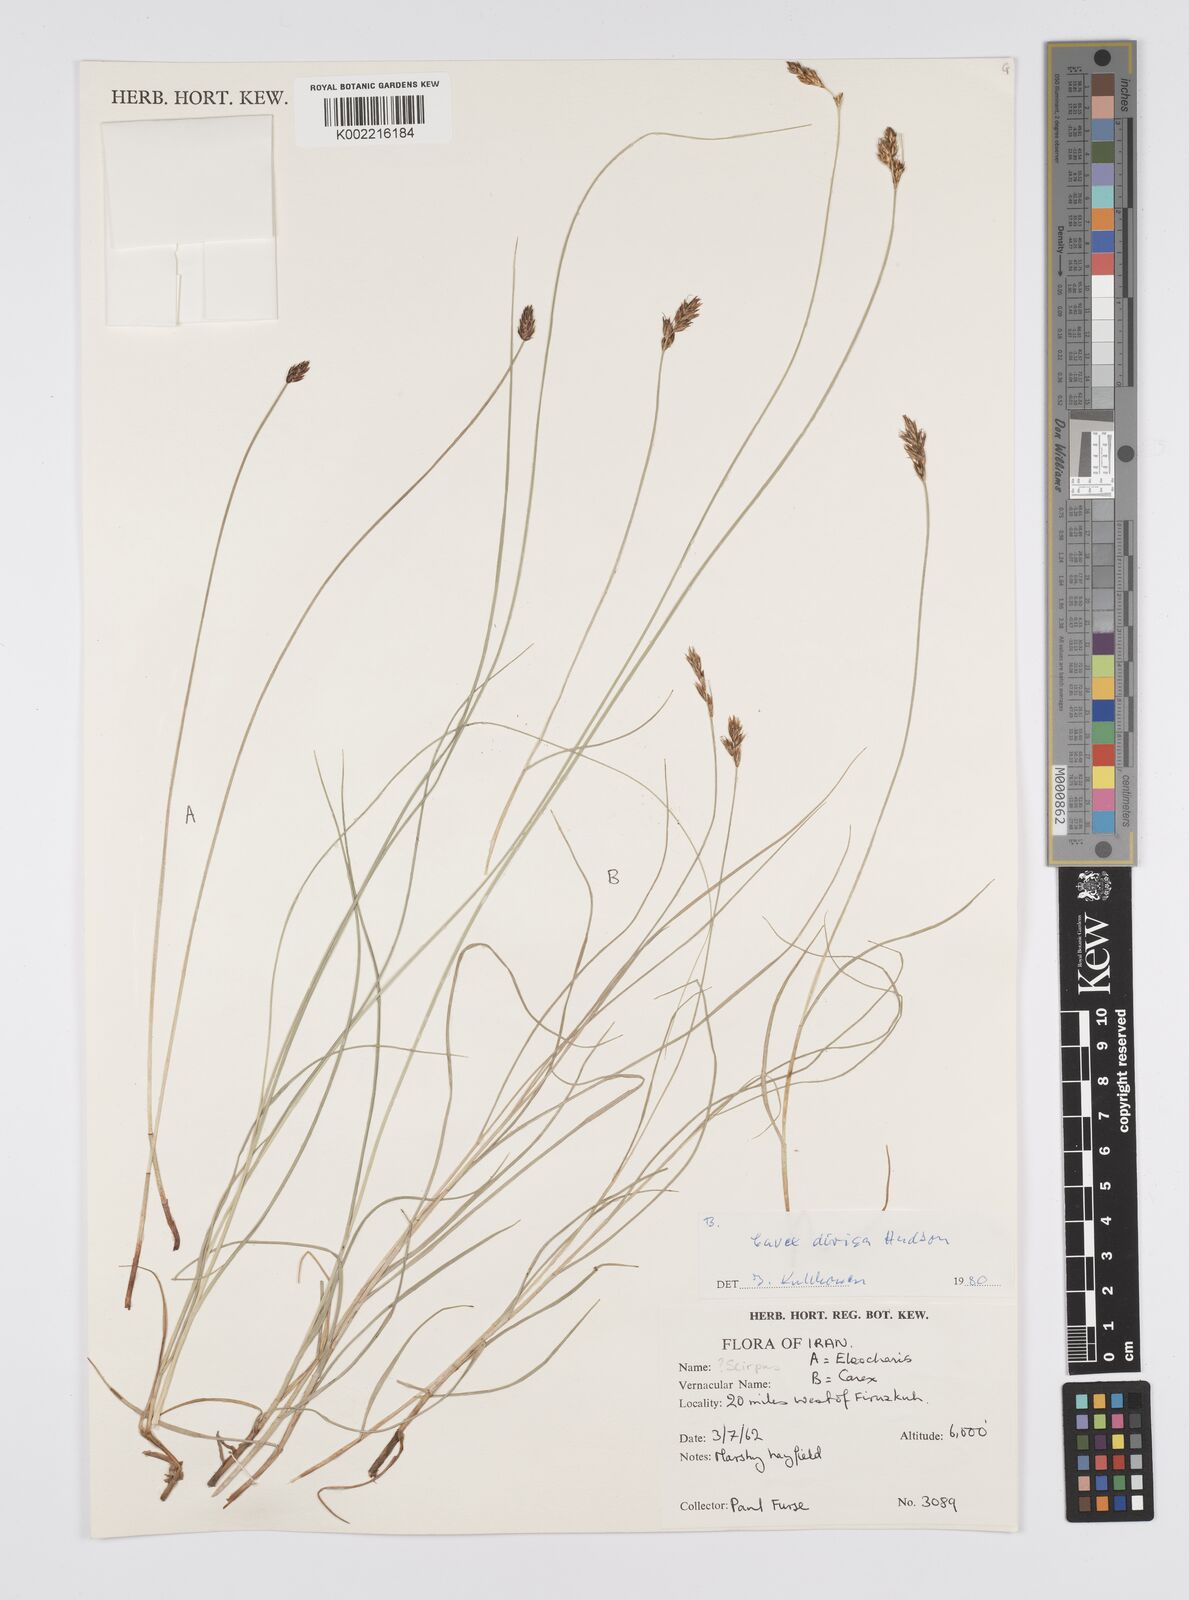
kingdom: Plantae
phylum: Tracheophyta
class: Liliopsida
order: Poales
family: Cyperaceae
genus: Carex
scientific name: Carex divisa
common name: Divided sedge
